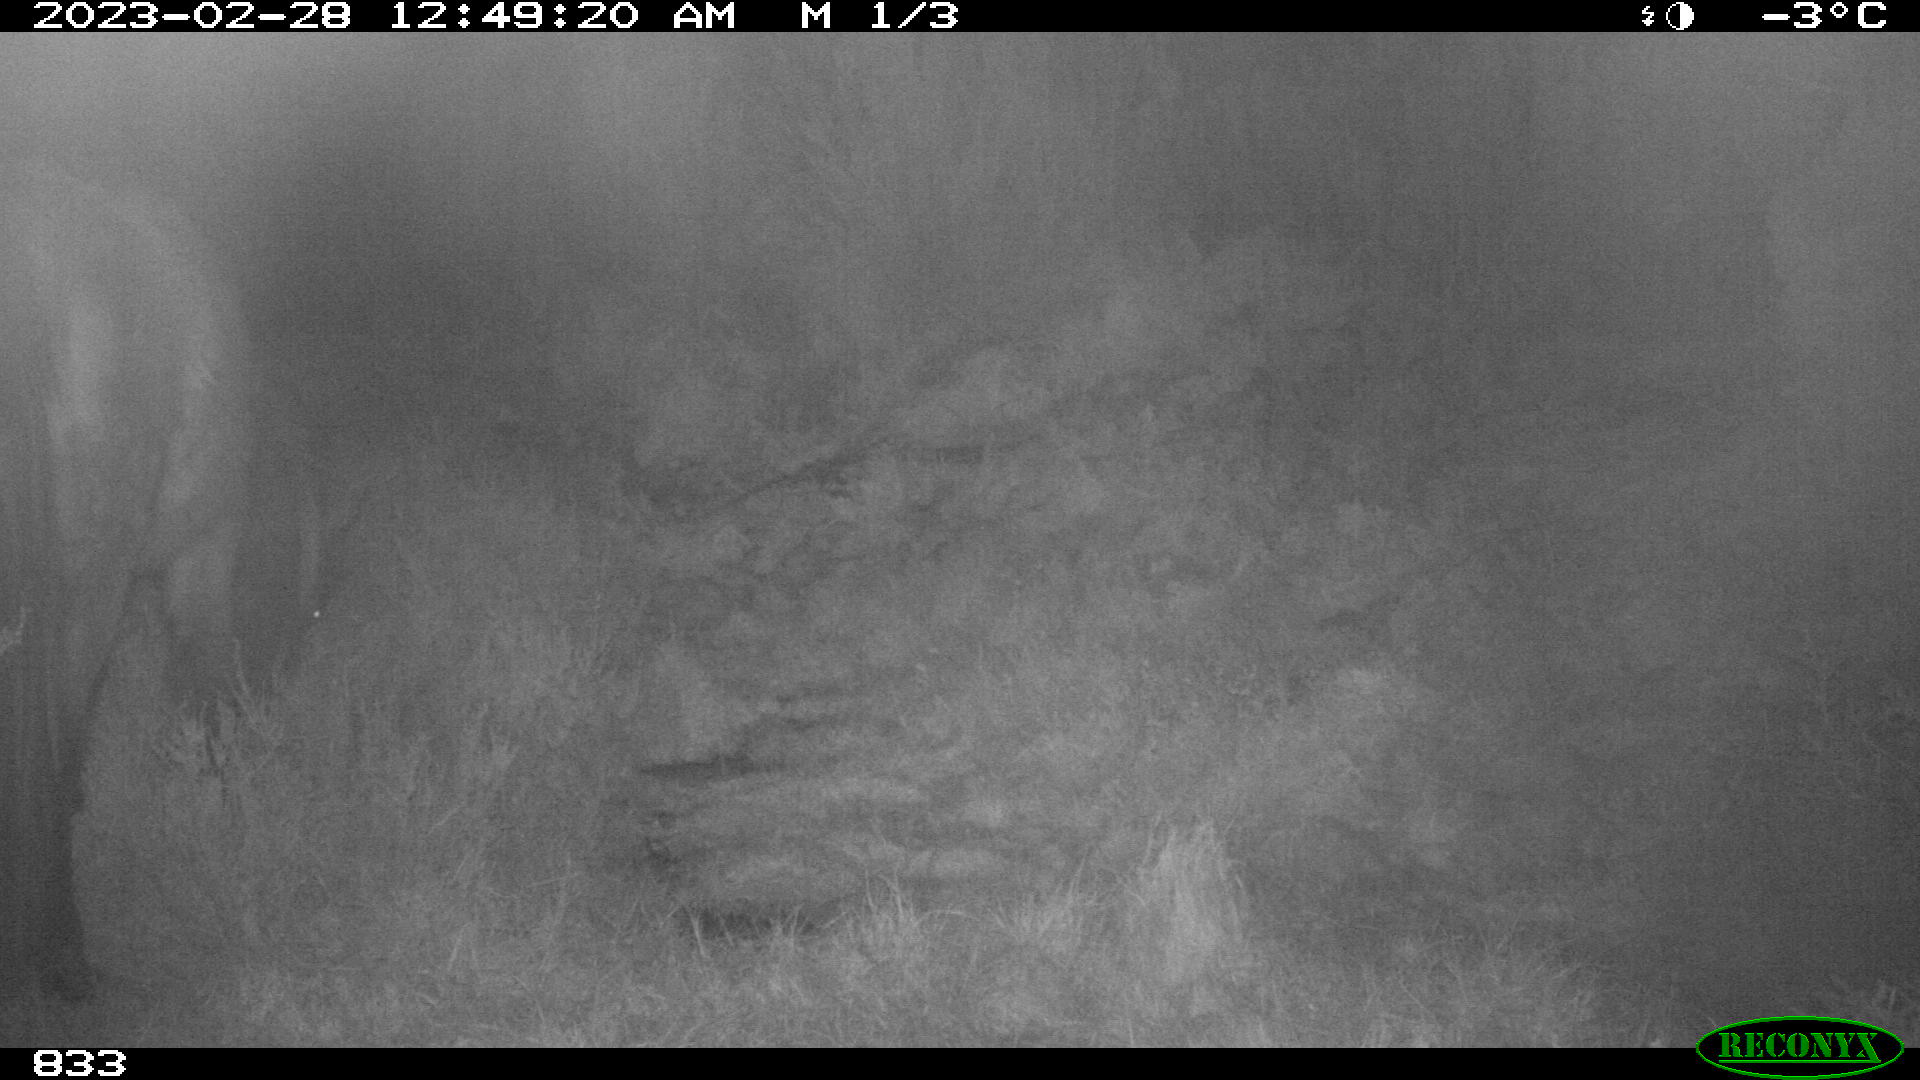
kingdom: Animalia
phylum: Chordata
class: Mammalia
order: Perissodactyla
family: Equidae
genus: Equus
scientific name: Equus caballus
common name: Horse
